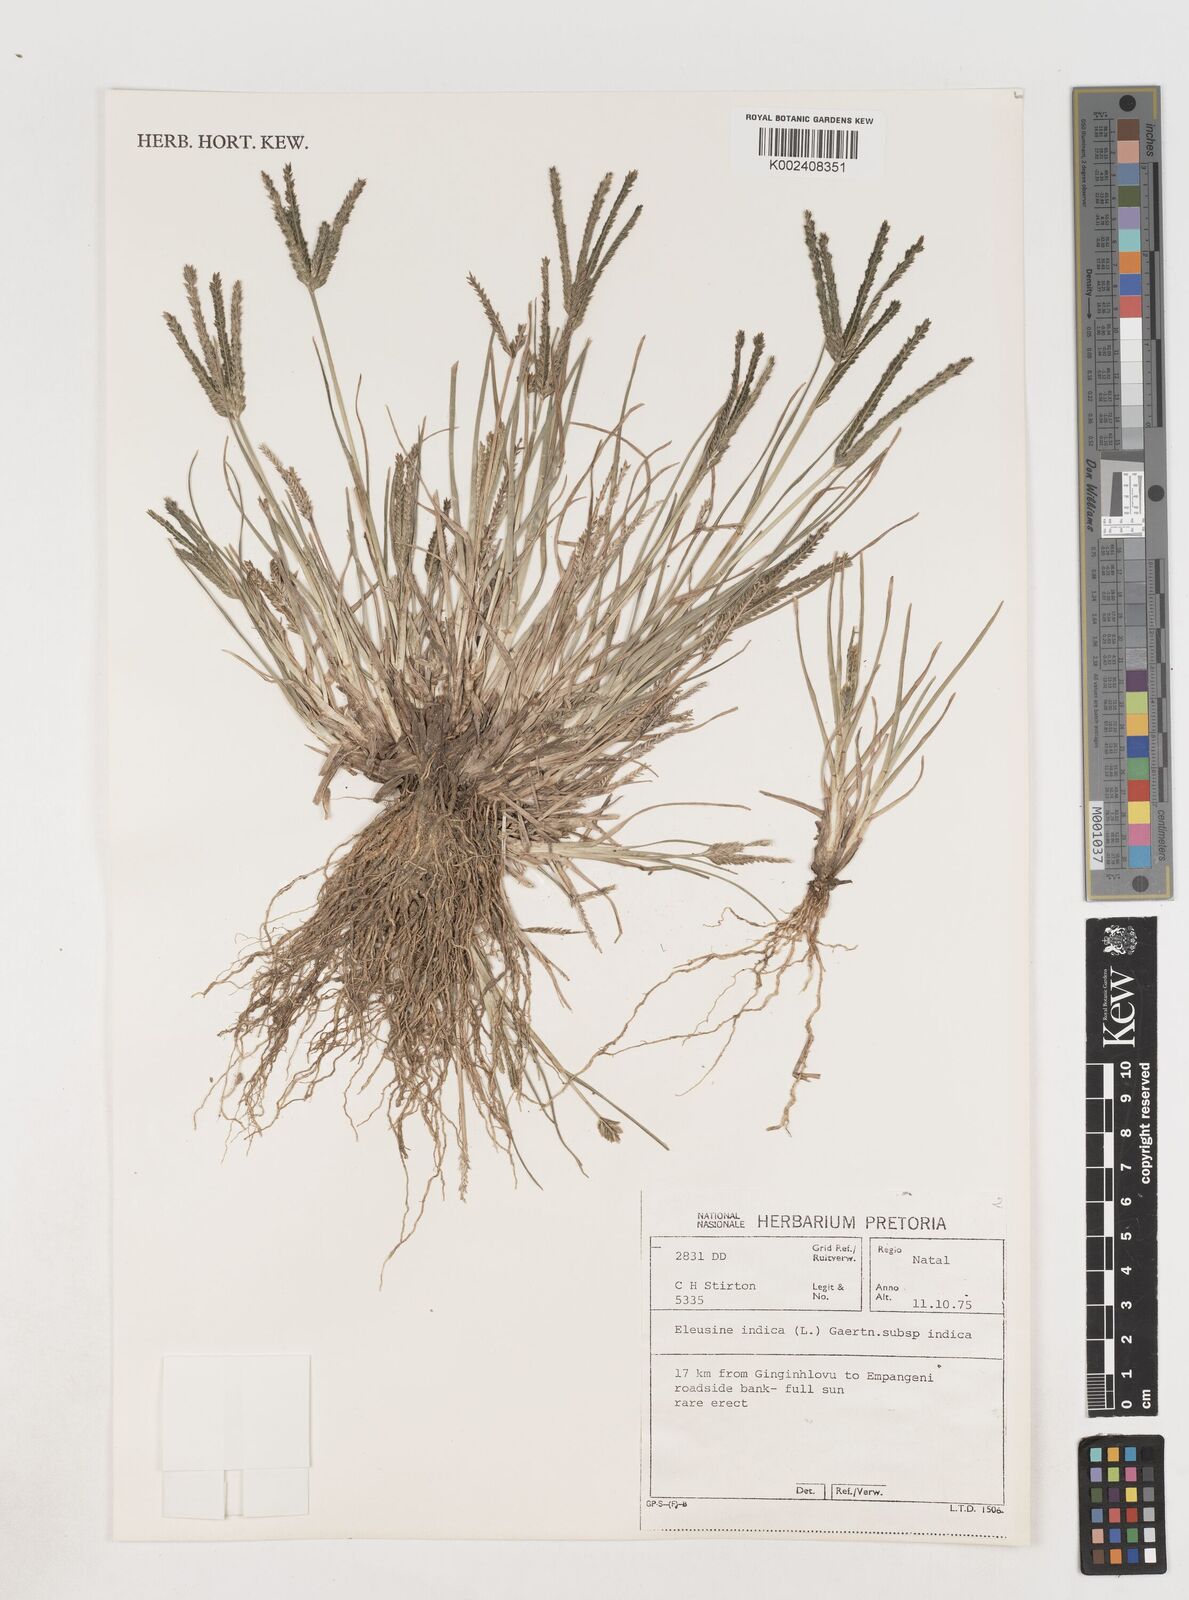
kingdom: Plantae
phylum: Tracheophyta
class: Liliopsida
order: Poales
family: Poaceae
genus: Eleusine
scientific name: Eleusine indica
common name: Yard-grass
